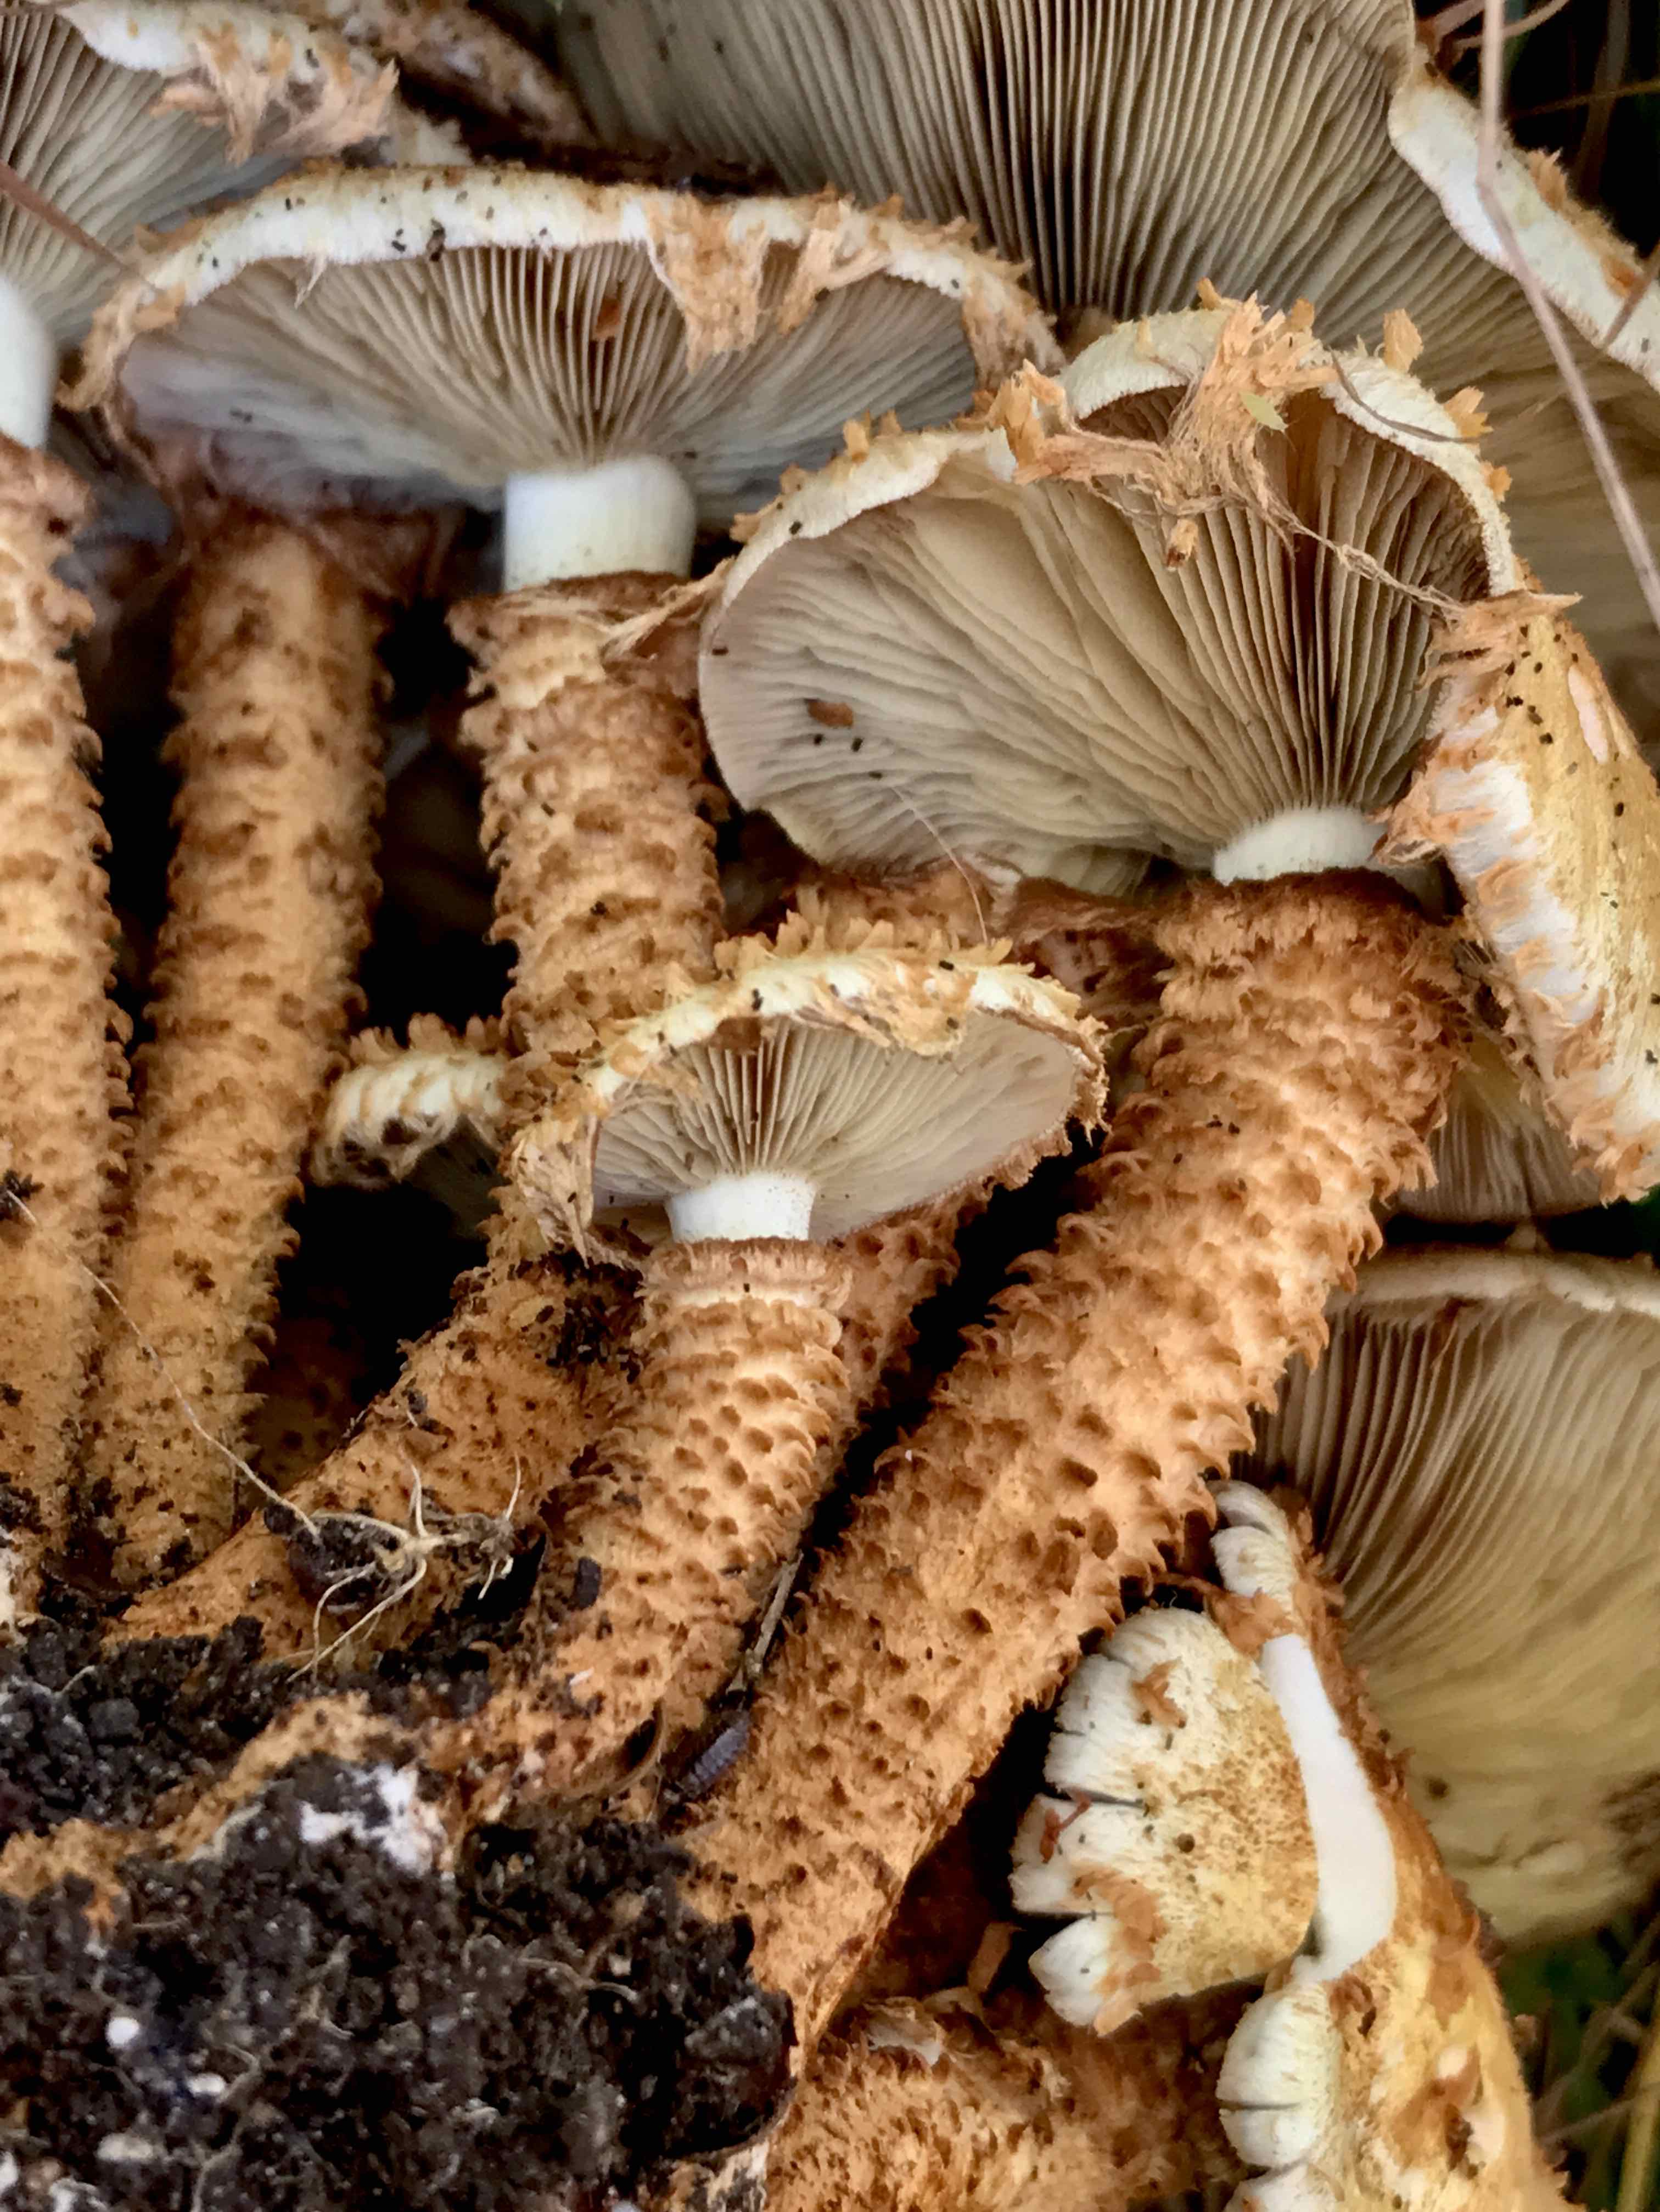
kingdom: Fungi
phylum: Basidiomycota
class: Agaricomycetes
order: Agaricales
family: Strophariaceae
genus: Pholiota
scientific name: Pholiota squarrosa
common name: krumskællet skælhat
